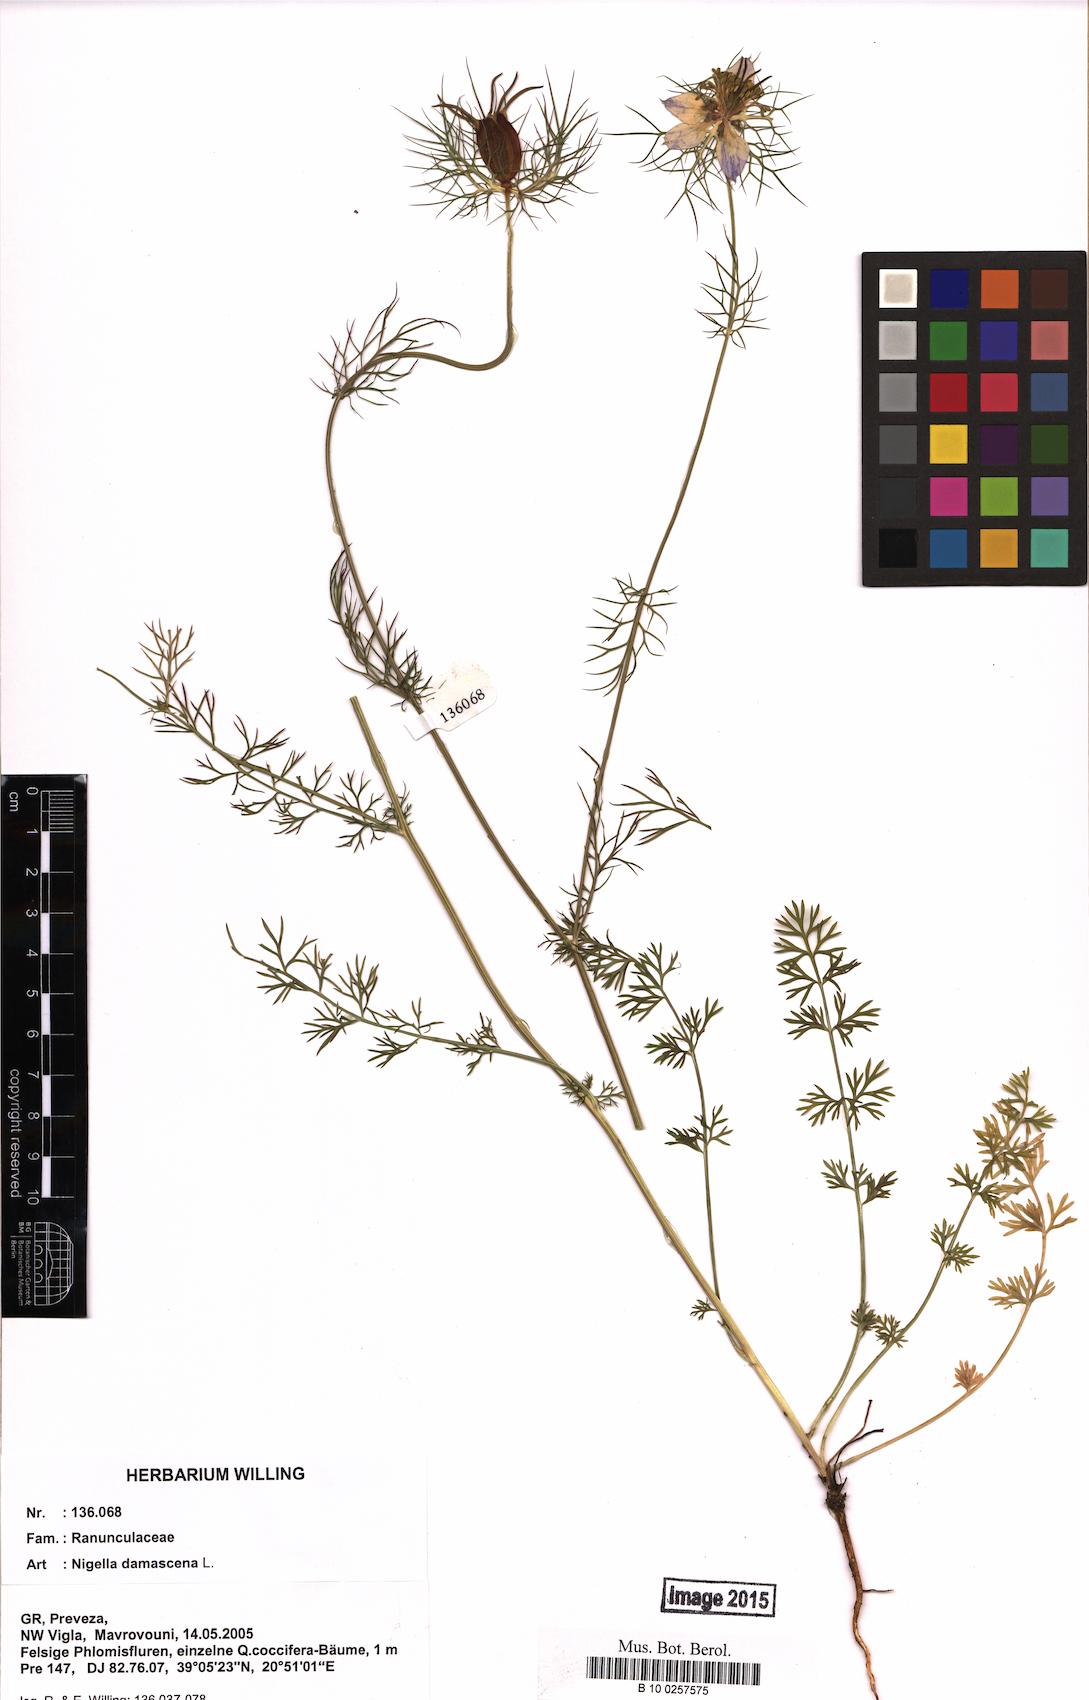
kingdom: Plantae
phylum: Tracheophyta
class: Magnoliopsida
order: Ranunculales
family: Ranunculaceae
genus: Nigella
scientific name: Nigella damascena
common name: Love-in-a-mist
